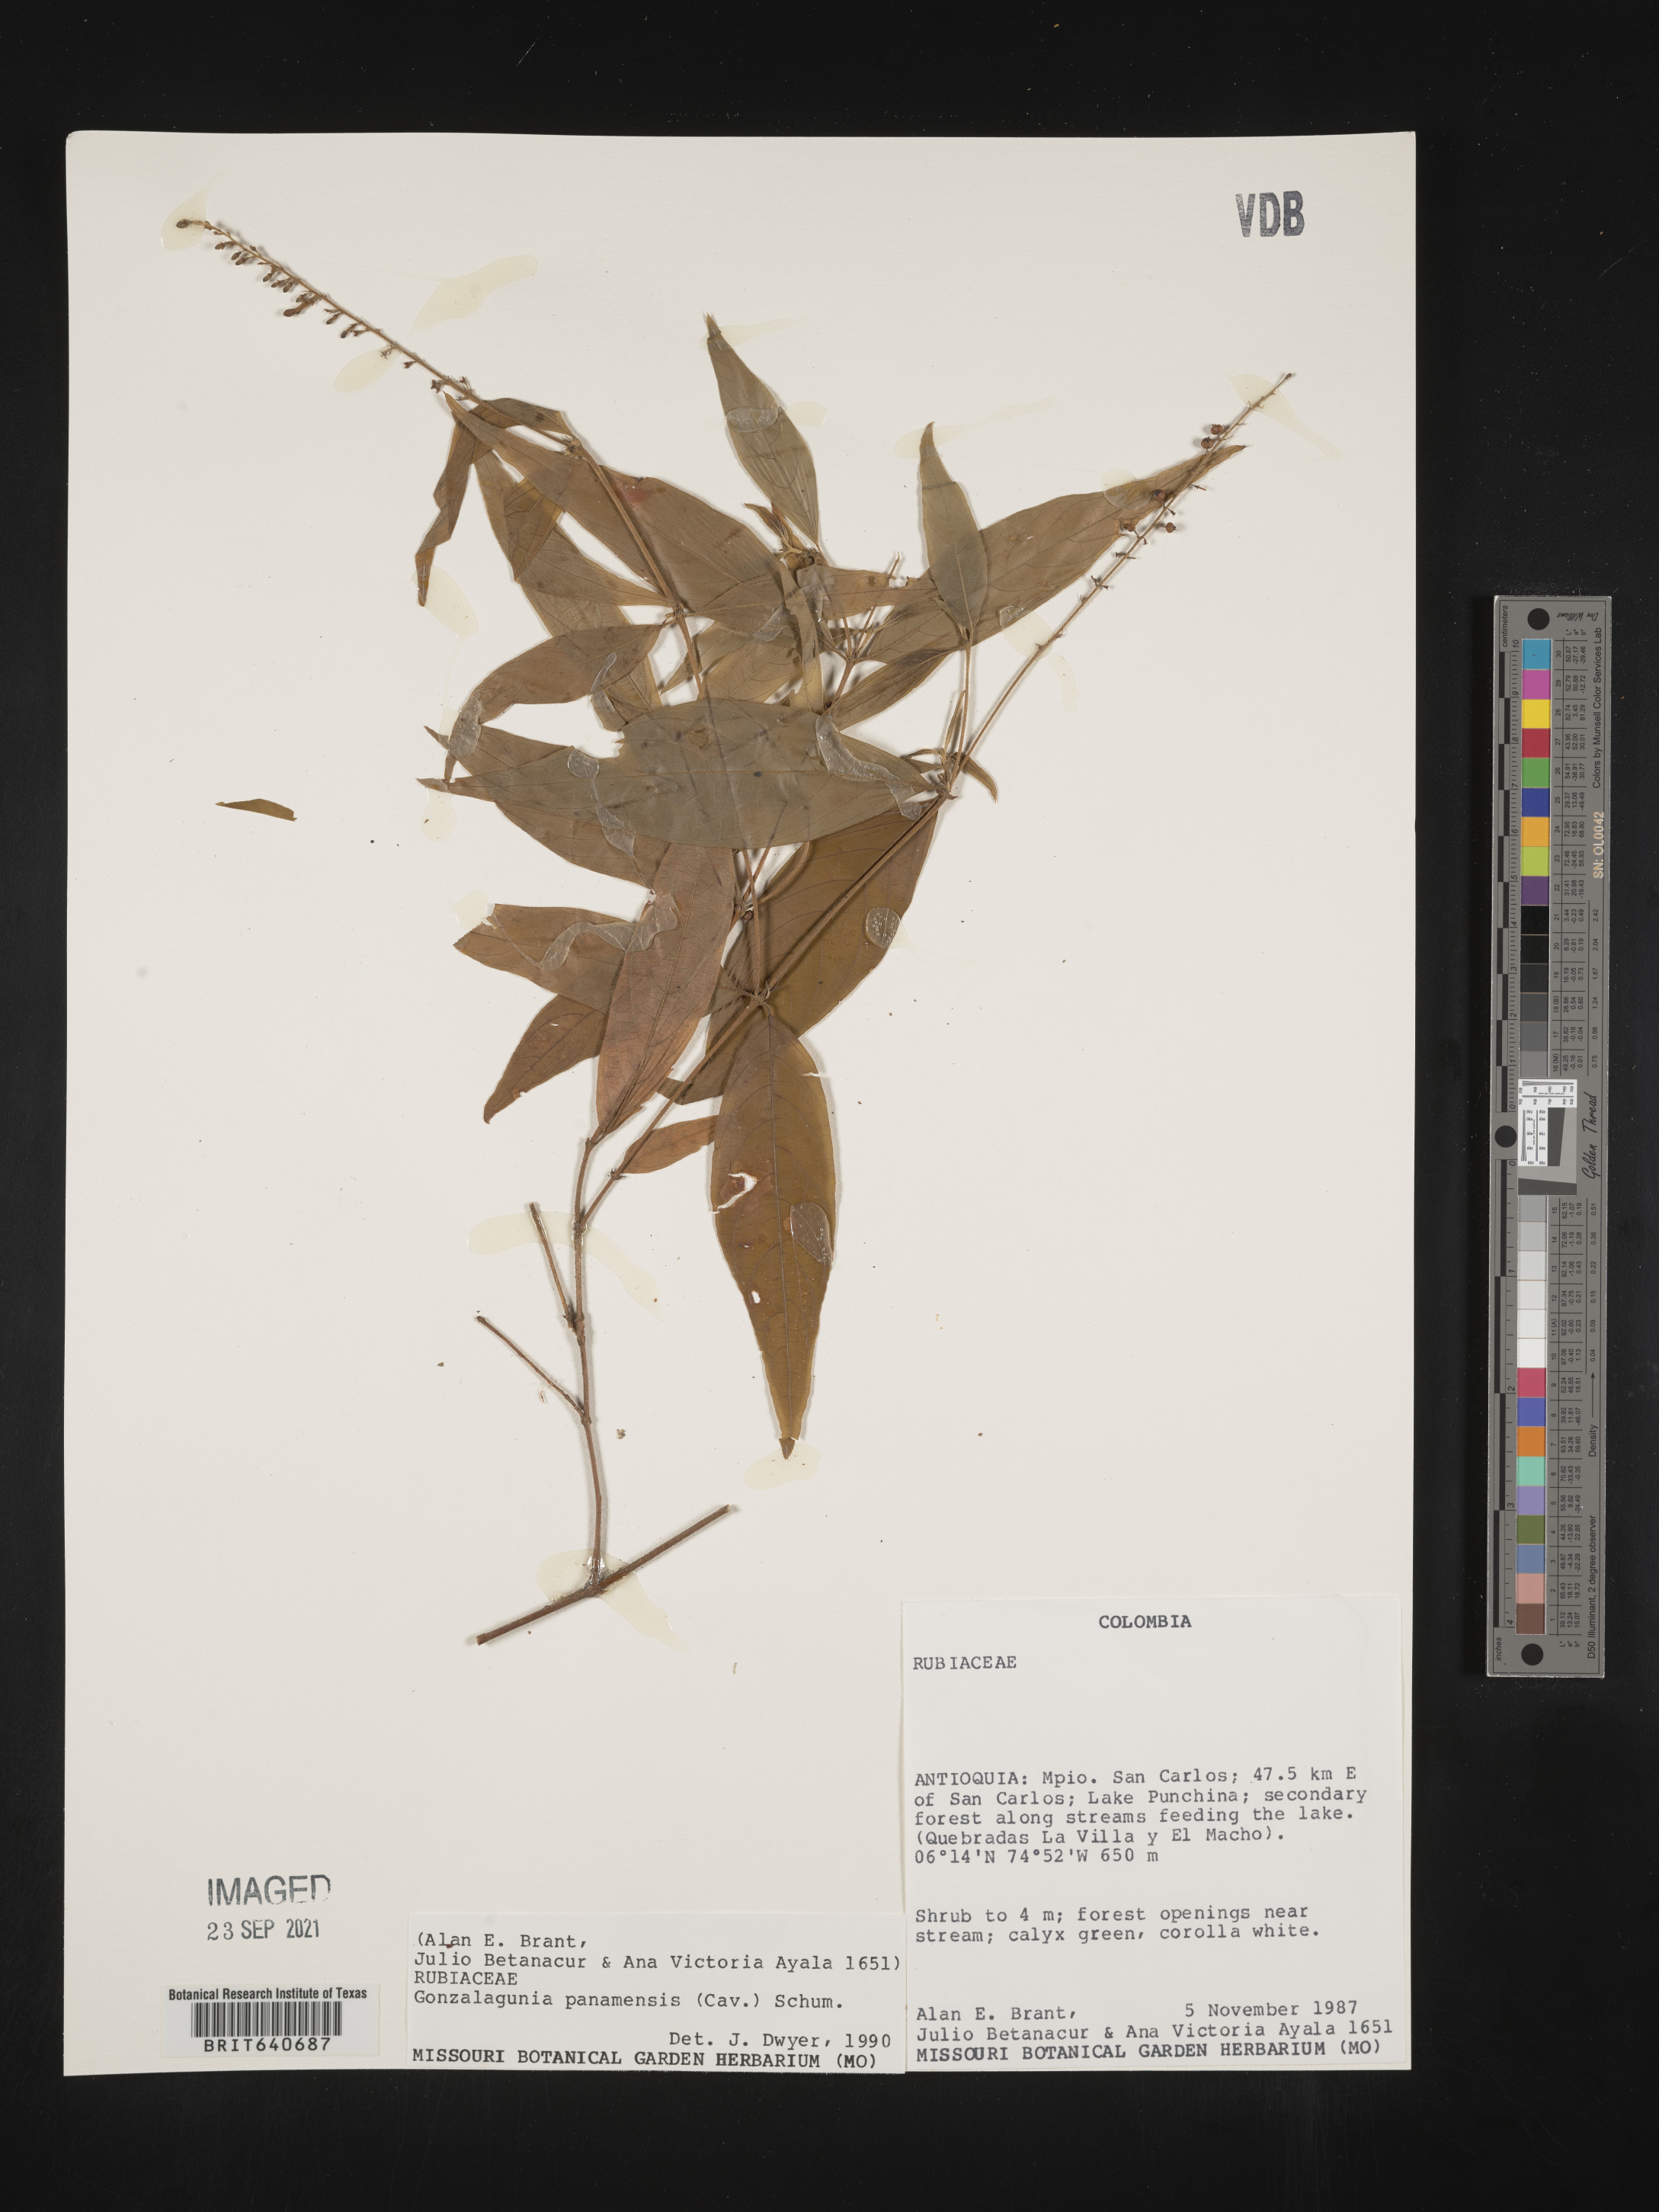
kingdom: Plantae
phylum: Tracheophyta
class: Magnoliopsida
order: Gentianales
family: Rubiaceae
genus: Gonzalagunia
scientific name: Gonzalagunia
